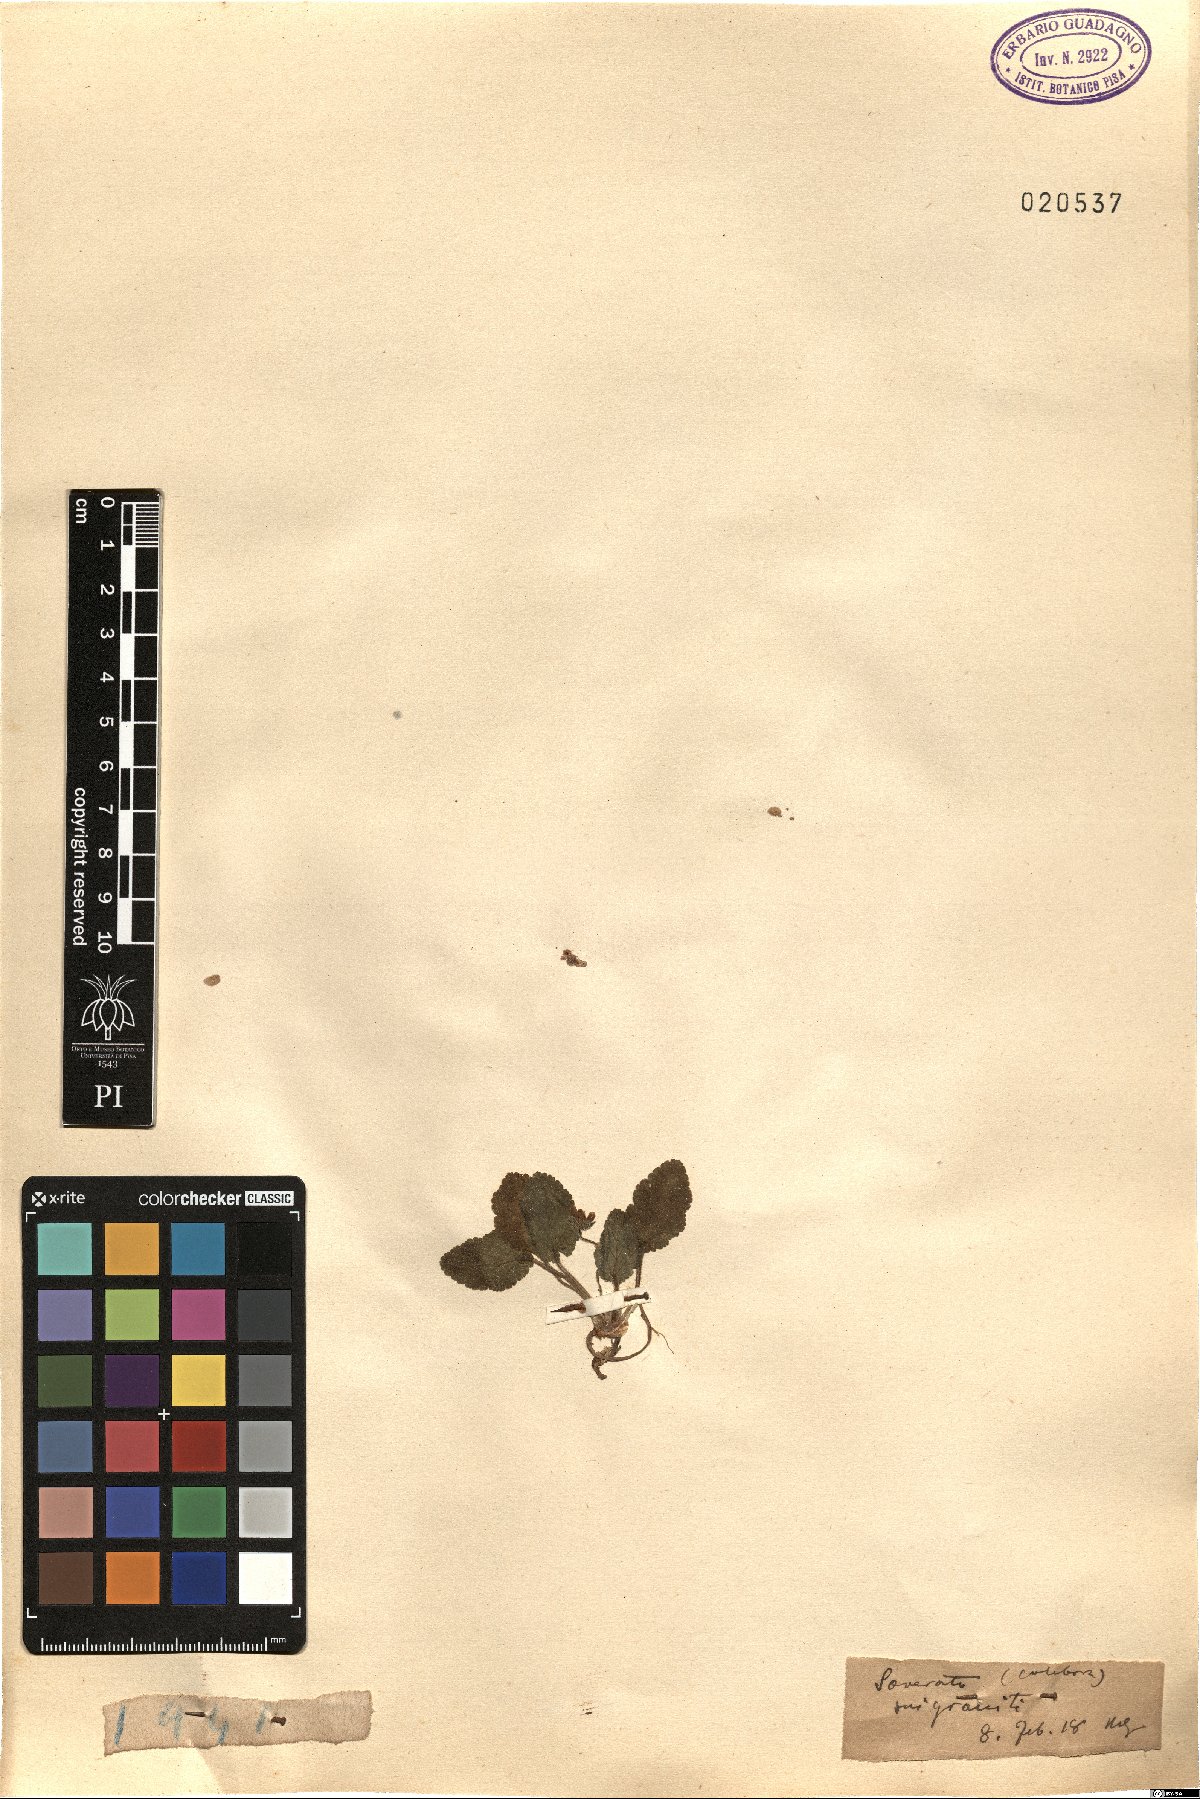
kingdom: Plantae
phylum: Tracheophyta
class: Magnoliopsida
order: Geraniales
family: Geraniaceae
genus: Erodium
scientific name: Erodium
